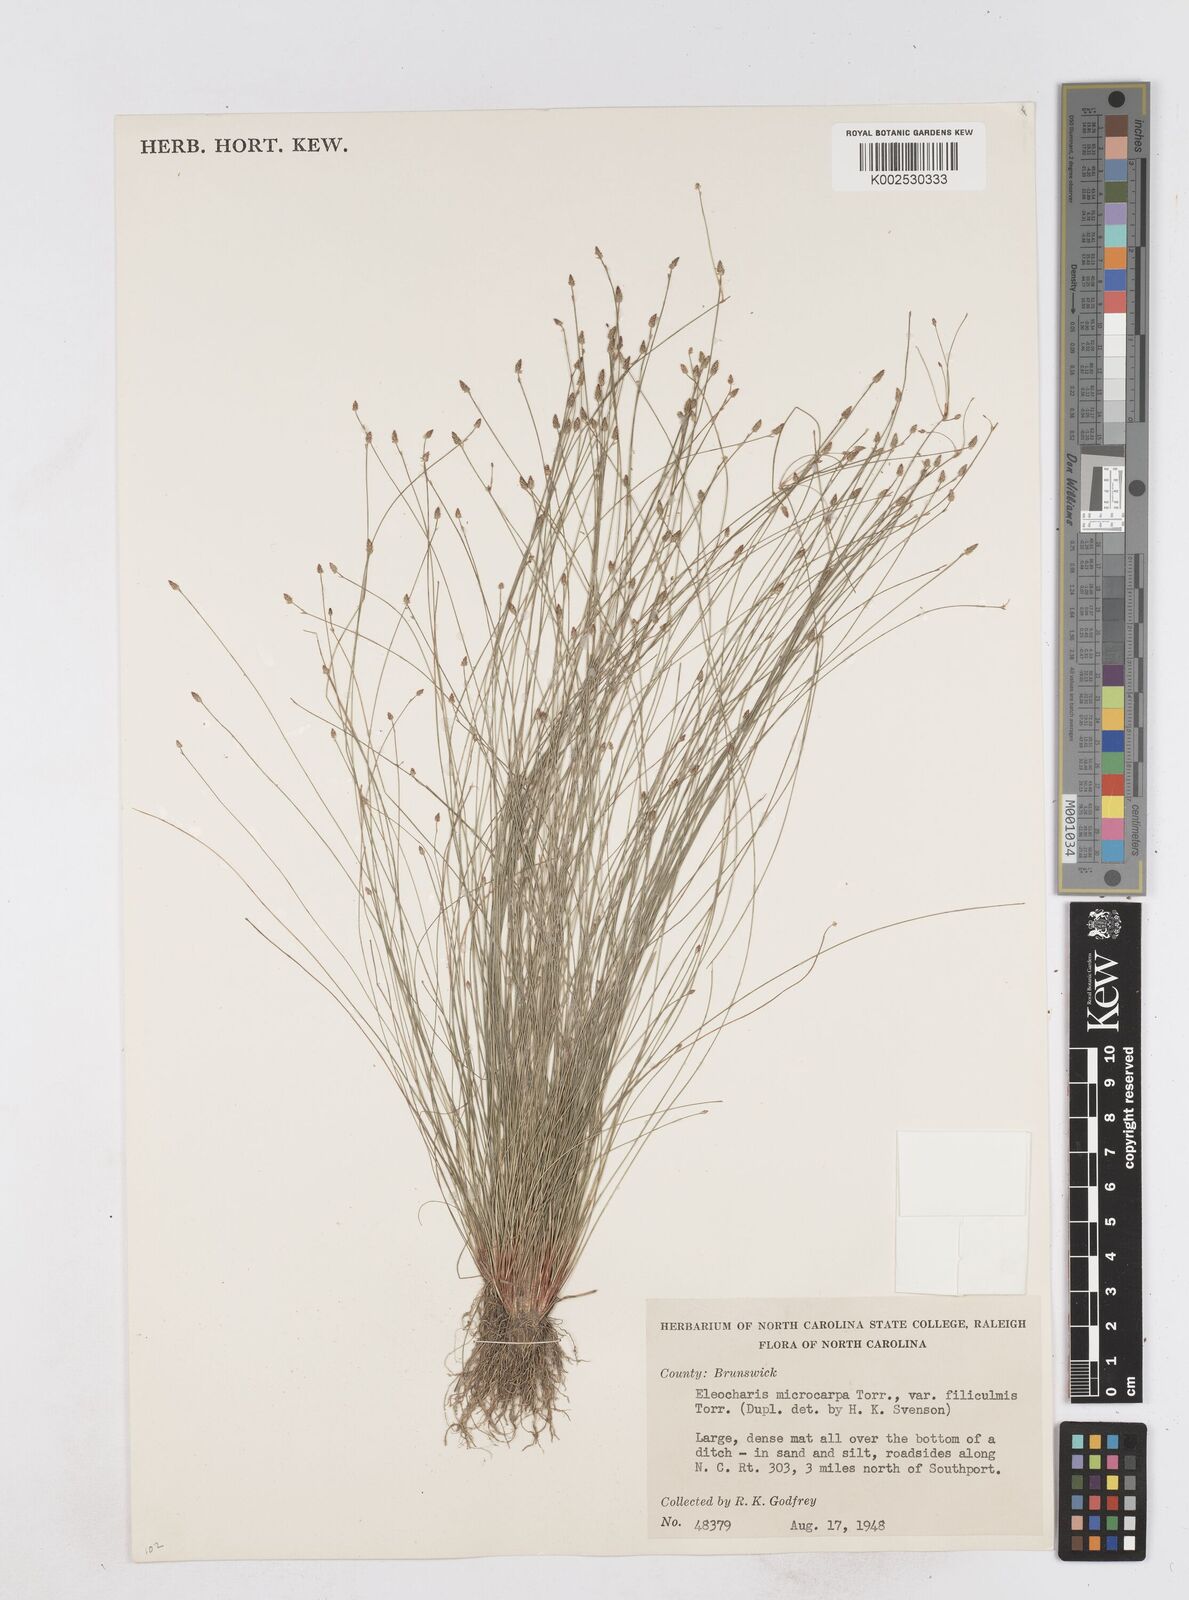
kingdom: Plantae
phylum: Tracheophyta
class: Liliopsida
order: Poales
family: Cyperaceae
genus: Eleocharis
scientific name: Eleocharis microcarpa
